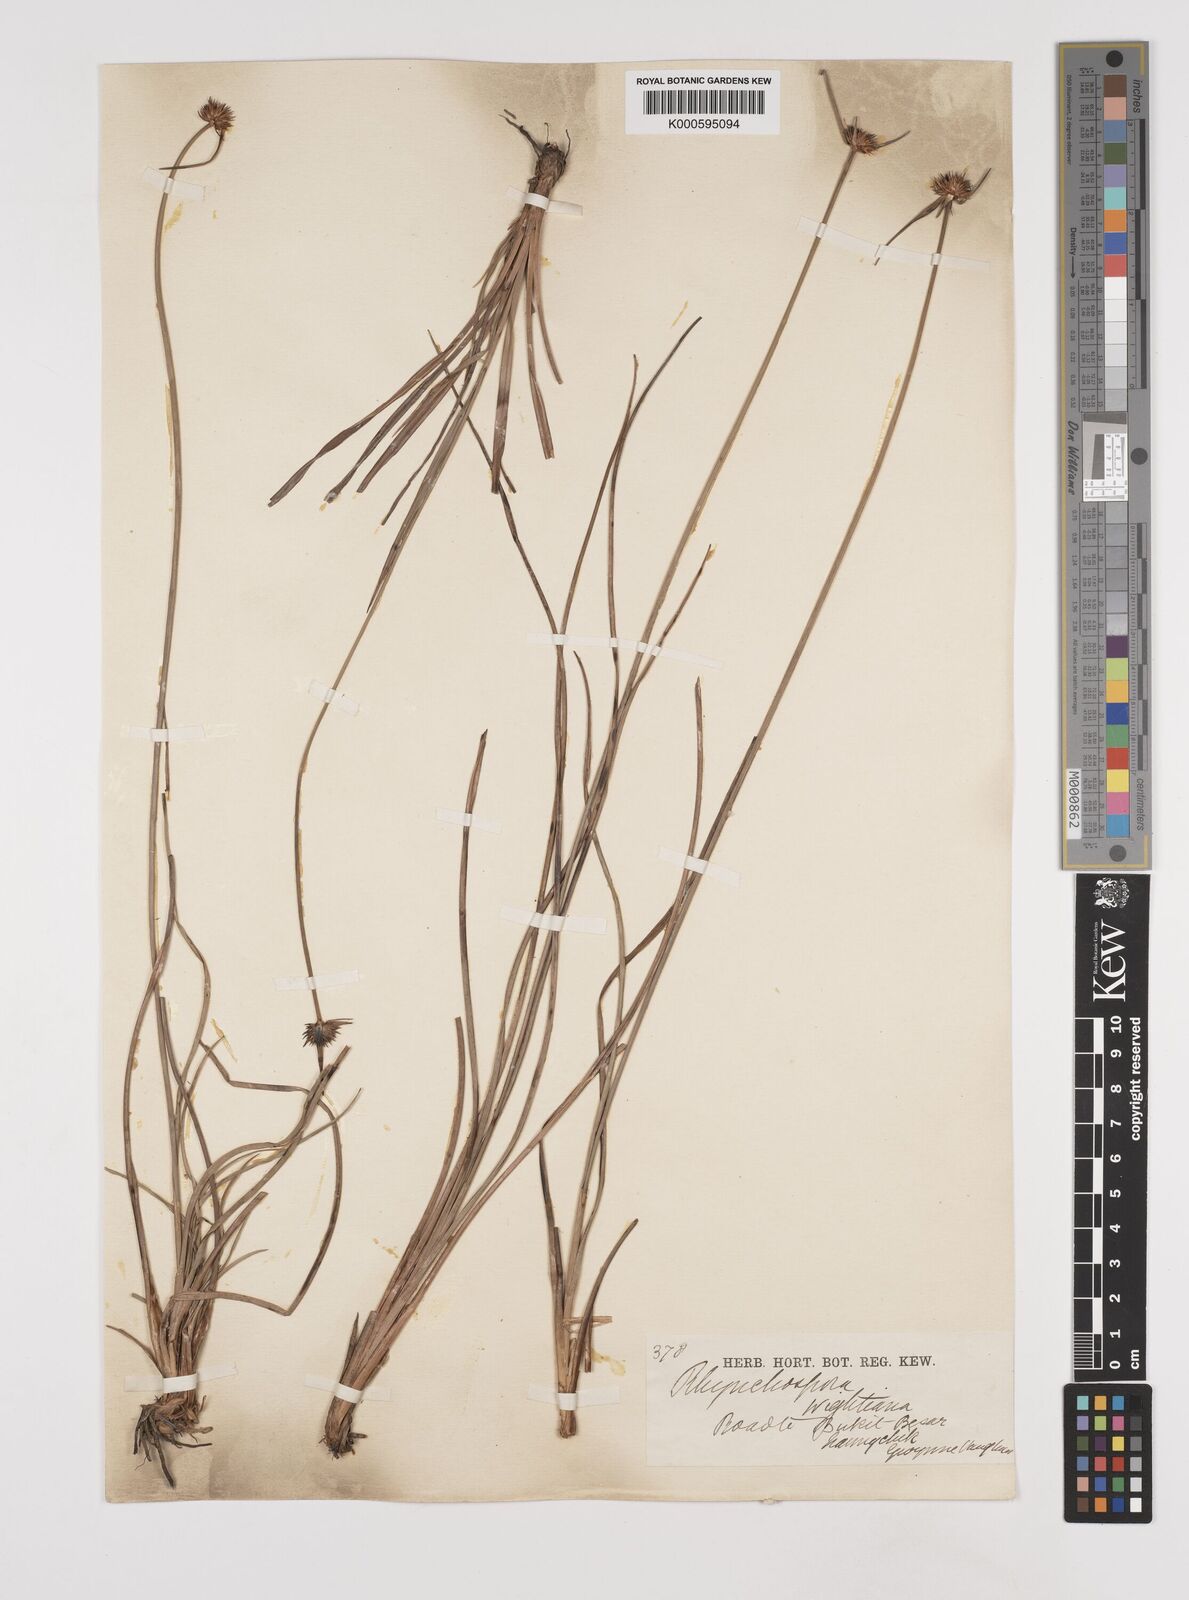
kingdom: Plantae
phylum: Tracheophyta
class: Liliopsida
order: Poales
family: Cyperaceae
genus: Rhynchospora
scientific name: Rhynchospora
